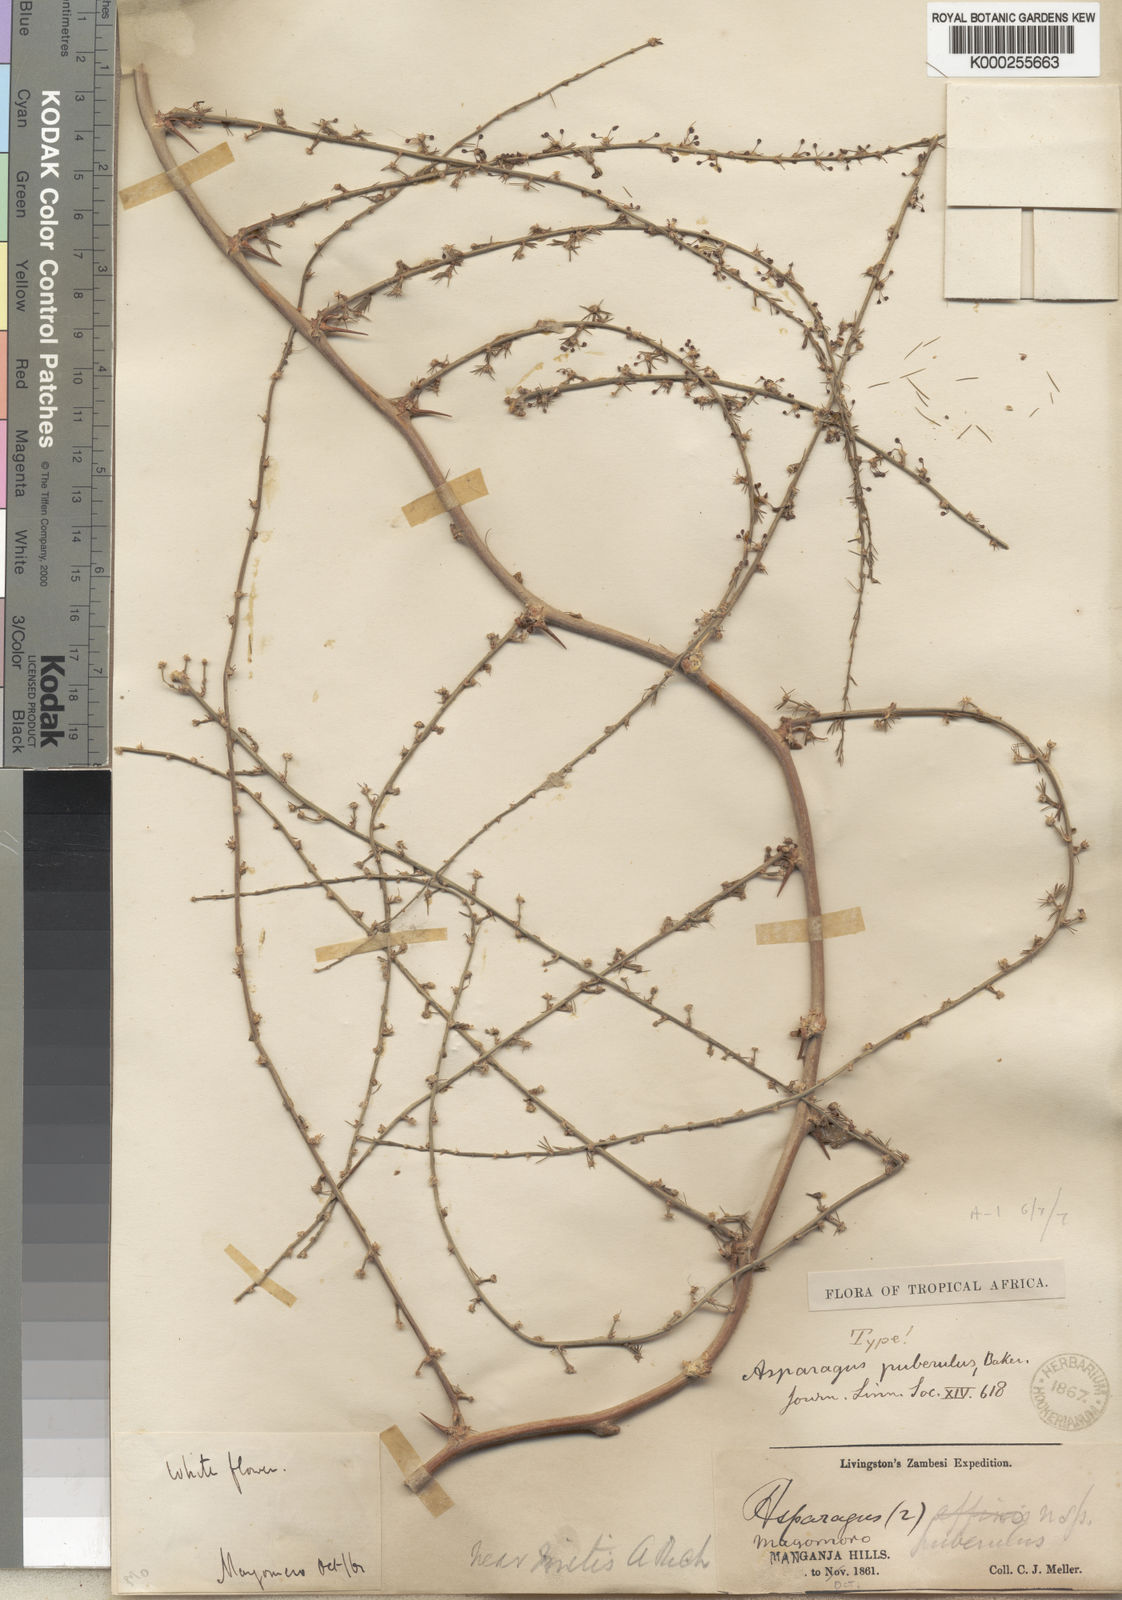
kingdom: Plantae
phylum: Tracheophyta
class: Liliopsida
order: Asparagales
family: Asparagaceae
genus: Asparagus
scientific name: Asparagus africanus
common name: Asparagus-fern
